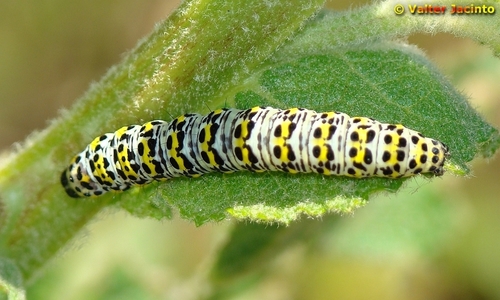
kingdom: Animalia
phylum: Arthropoda
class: Insecta
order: Lepidoptera
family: Noctuidae
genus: Cucullia
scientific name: Cucullia verbasci
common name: Mullein
